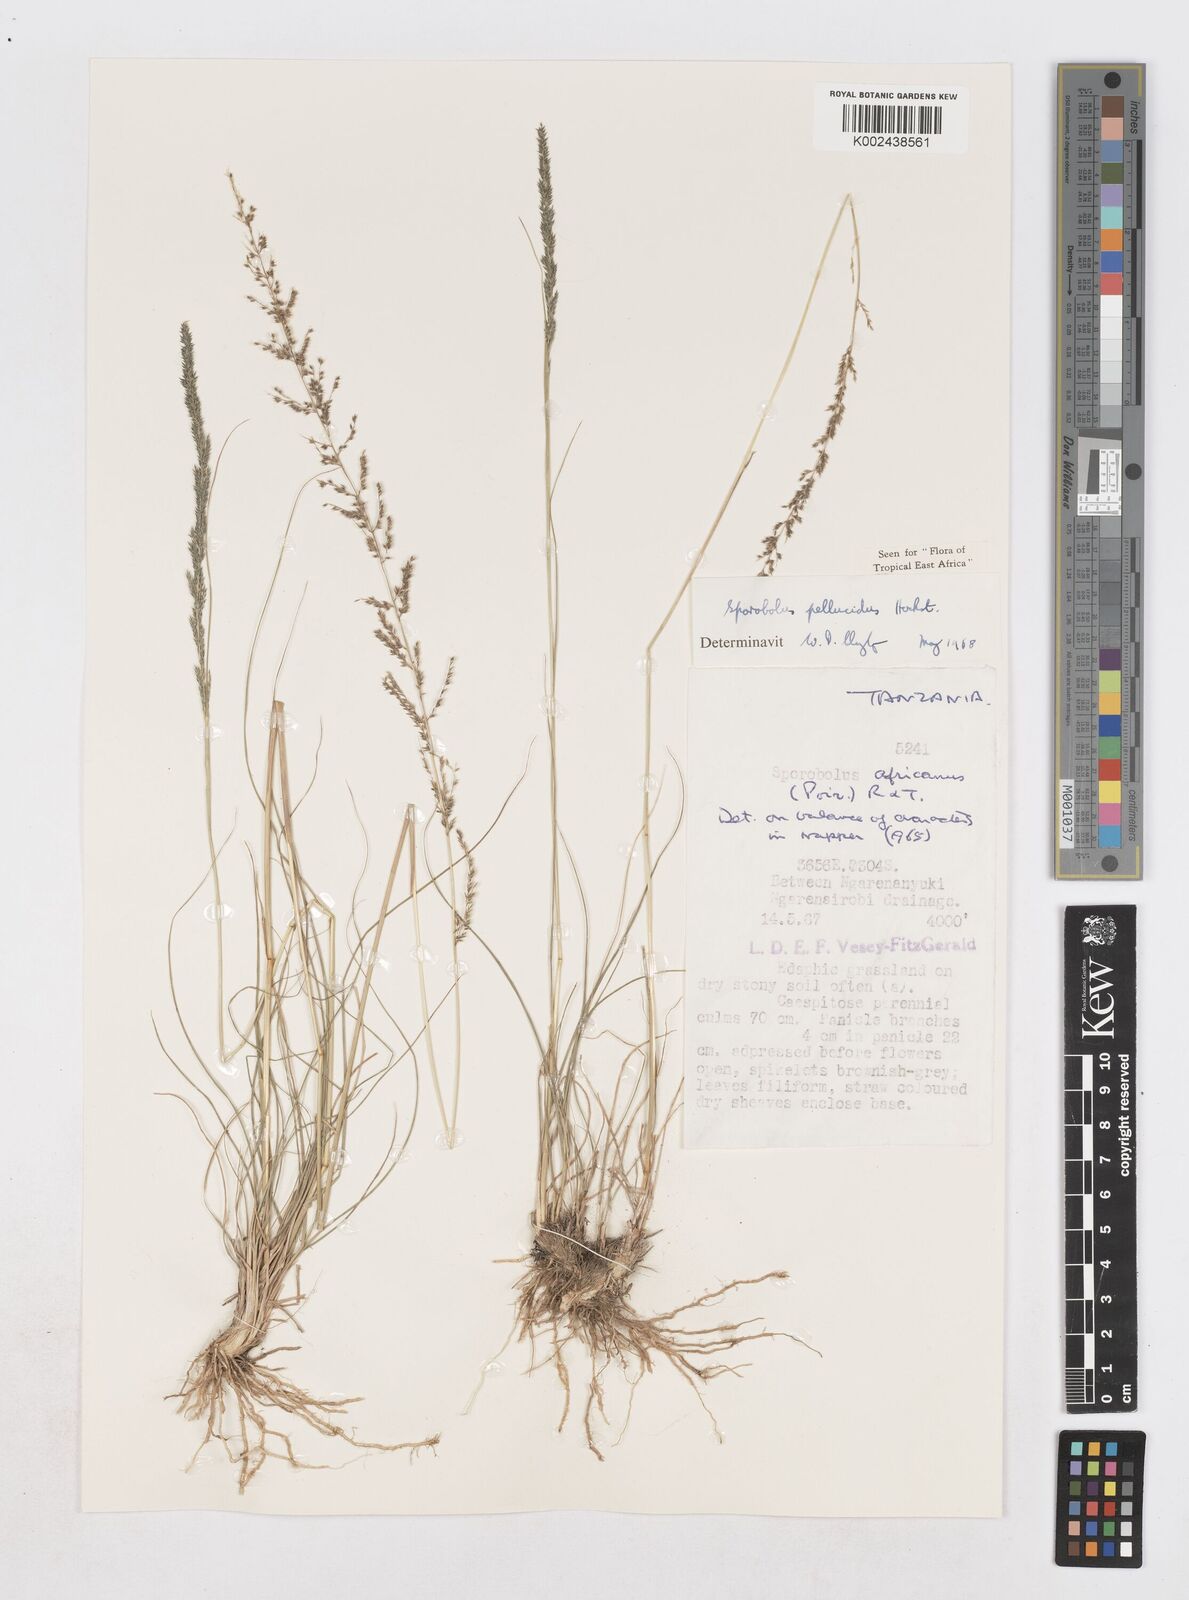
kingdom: Plantae
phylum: Tracheophyta
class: Liliopsida
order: Poales
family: Poaceae
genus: Sporobolus
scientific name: Sporobolus pellucidus
